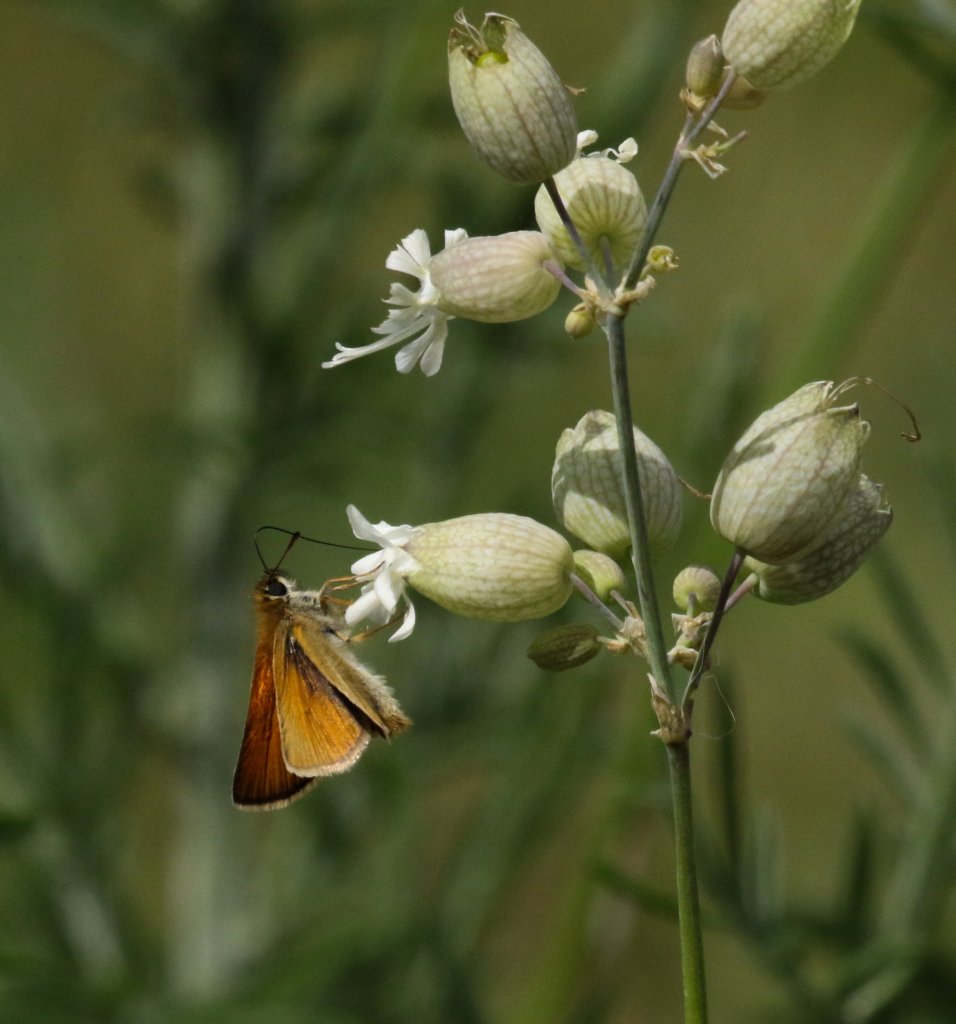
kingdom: Animalia
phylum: Arthropoda
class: Insecta
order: Lepidoptera
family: Hesperiidae
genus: Thymelicus
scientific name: Thymelicus lineola
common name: European Skipper
